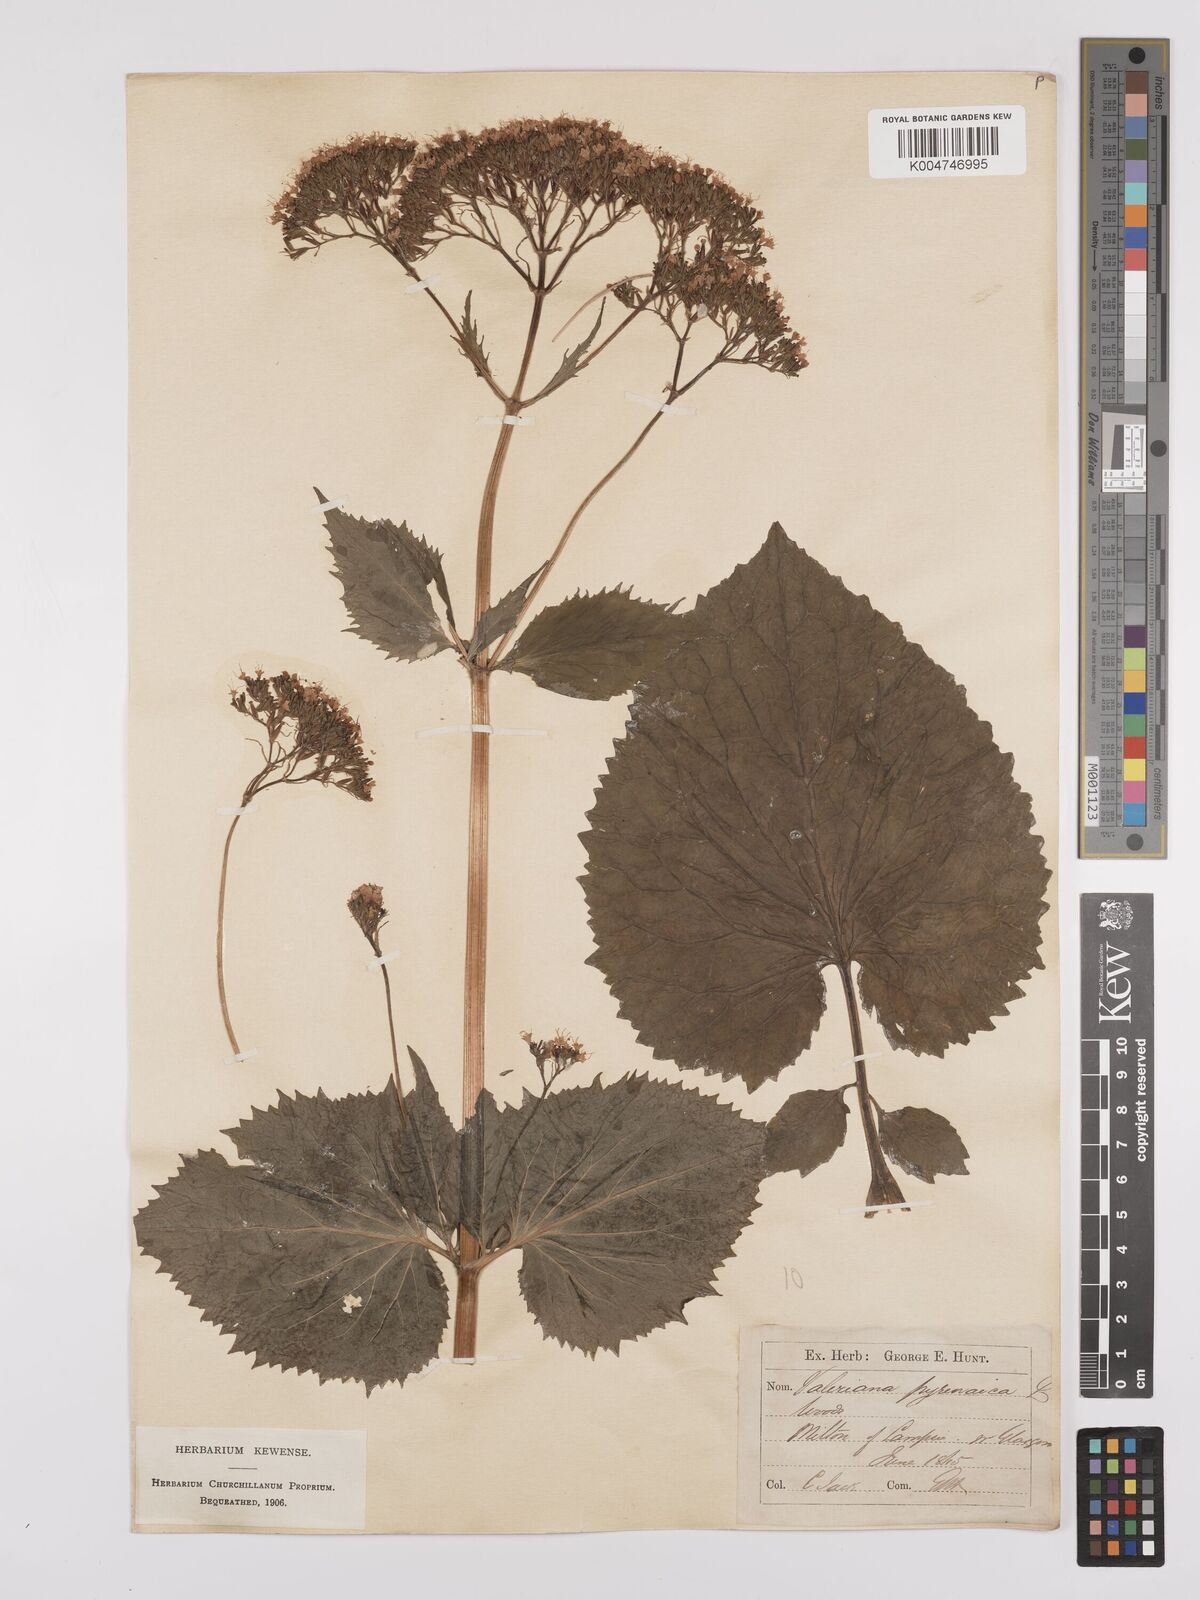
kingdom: Plantae
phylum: Tracheophyta
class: Magnoliopsida
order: Dipsacales
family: Caprifoliaceae
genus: Valeriana
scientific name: Valeriana pyrenaica
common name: Pyrenean valerian
